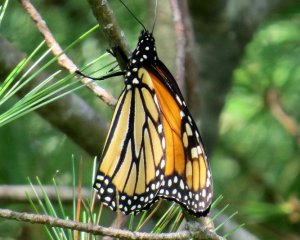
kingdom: Animalia
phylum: Arthropoda
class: Insecta
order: Lepidoptera
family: Nymphalidae
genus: Danaus
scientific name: Danaus plexippus
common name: Monarch
